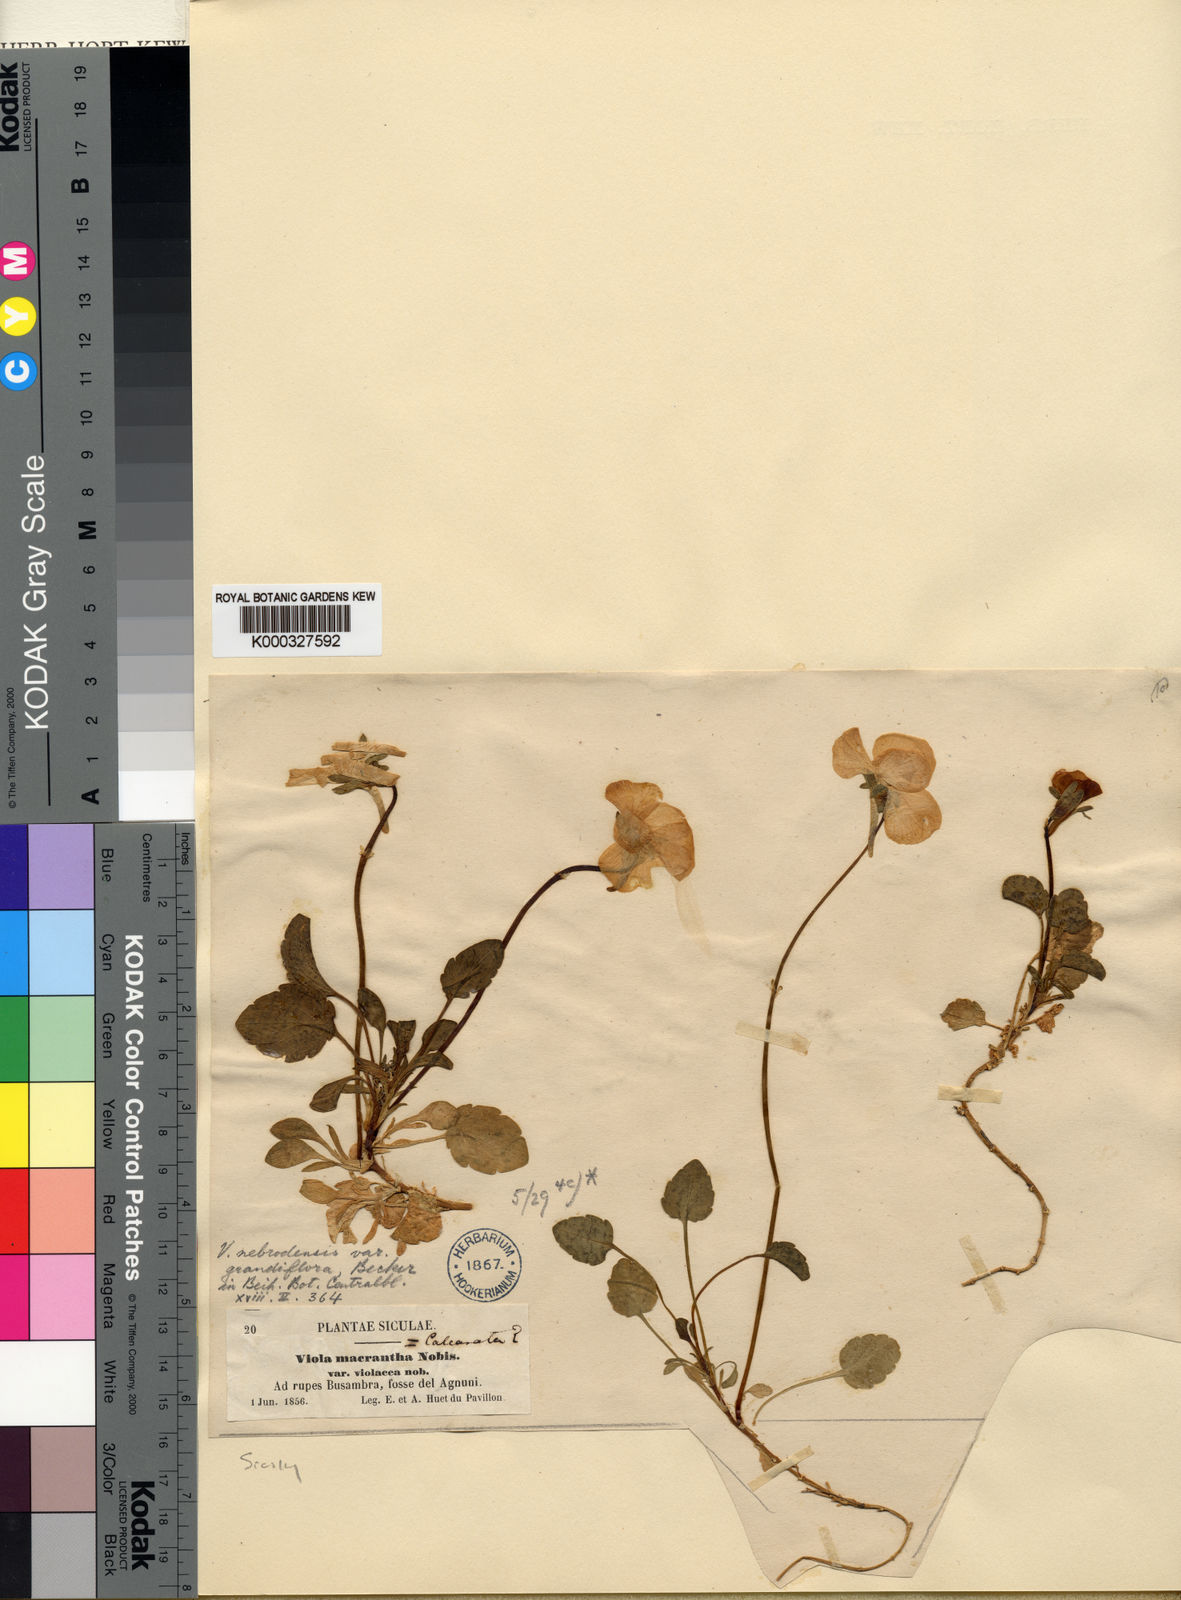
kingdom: Plantae
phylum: Tracheophyta
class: Magnoliopsida
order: Malpighiales
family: Violaceae
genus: Viola
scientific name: Viola nebrodensis
